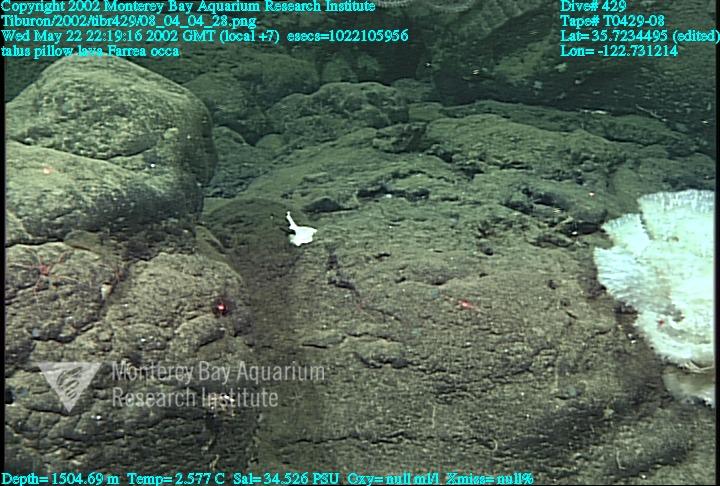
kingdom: Animalia
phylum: Porifera
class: Hexactinellida
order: Sceptrulophora
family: Farreidae
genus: Farrea
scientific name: Farrea occa
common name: Reversed glass sponge
